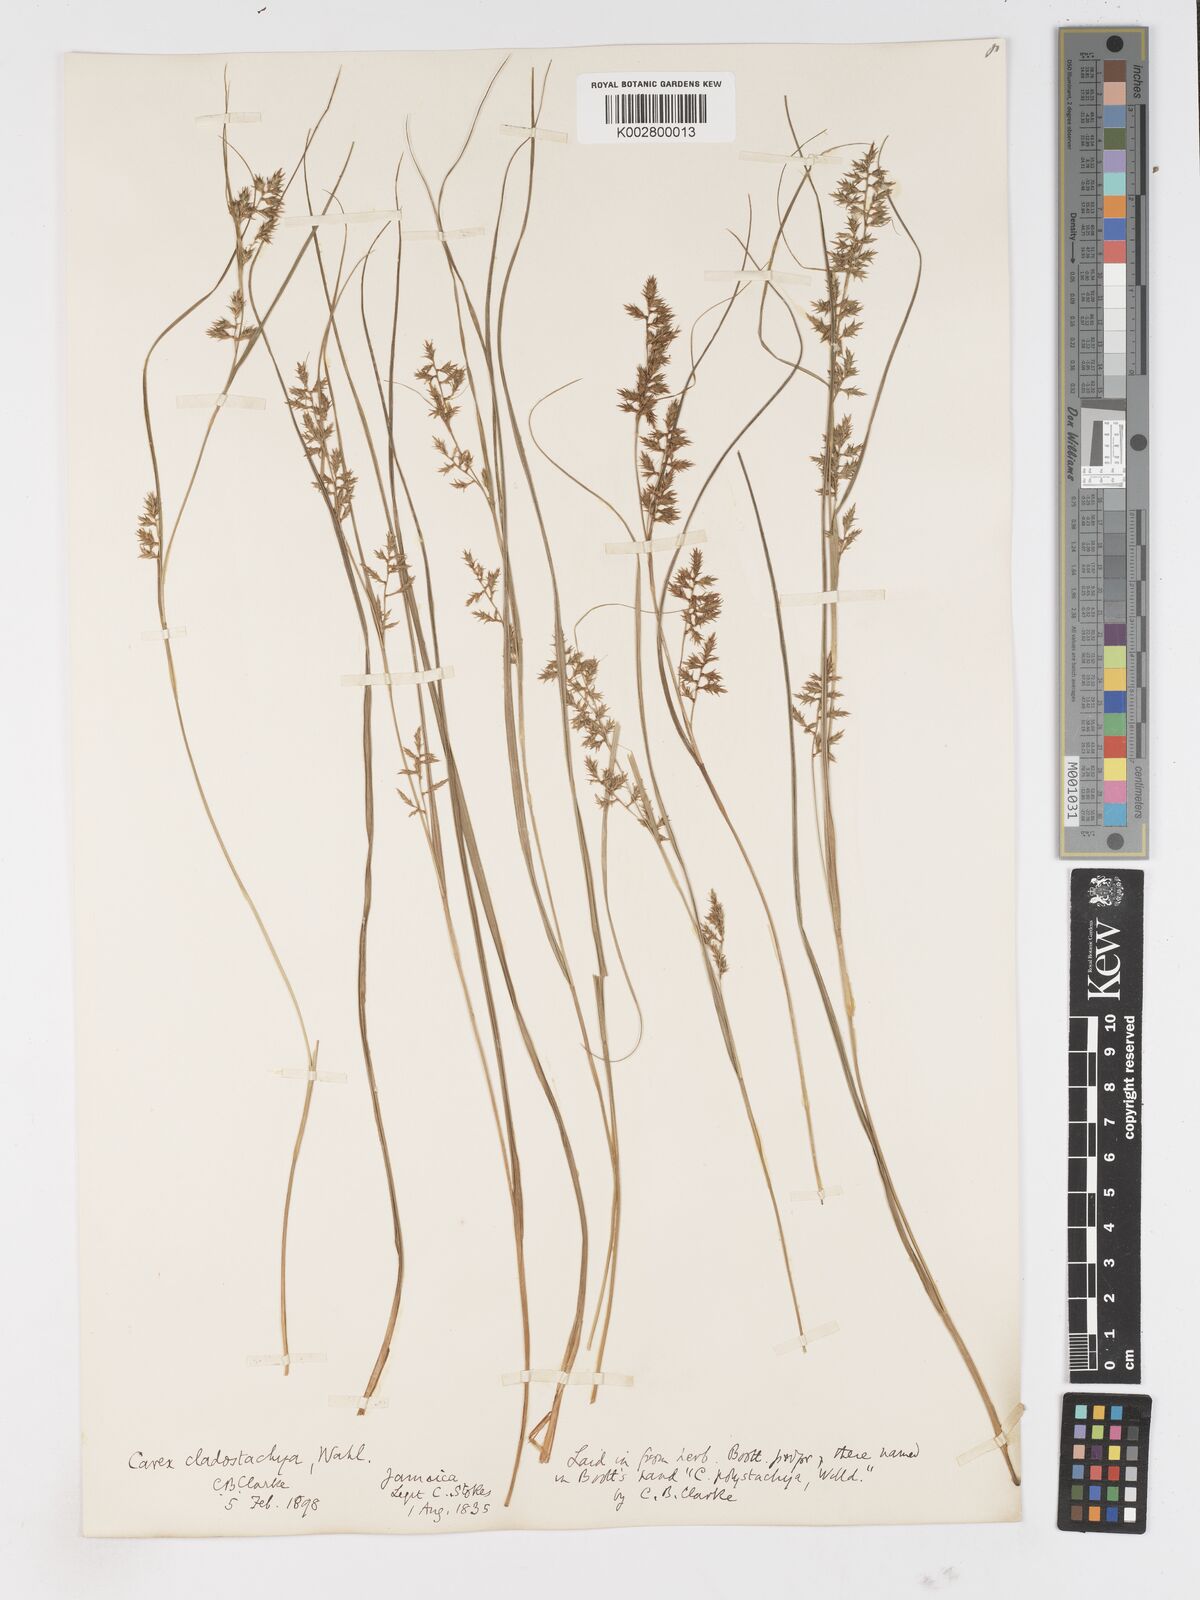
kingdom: Plantae
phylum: Tracheophyta
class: Liliopsida
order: Poales
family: Cyperaceae
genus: Carex
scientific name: Carex polystachya
